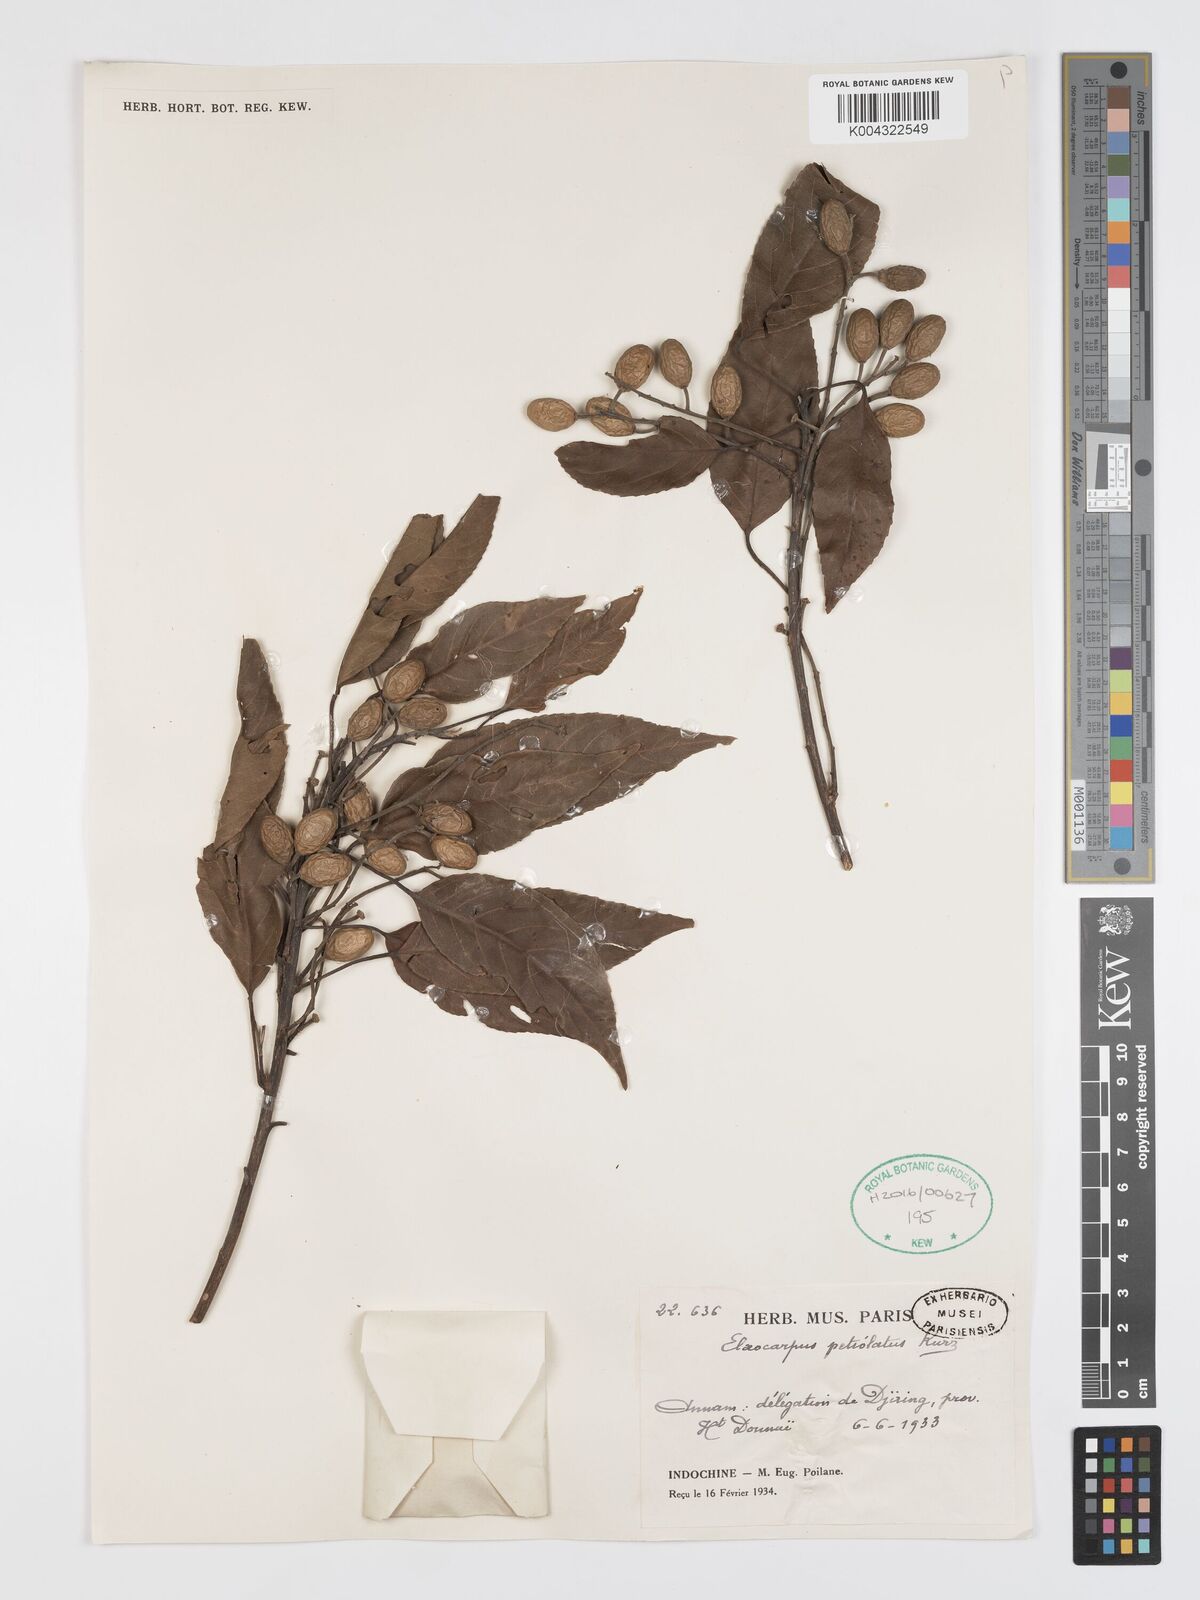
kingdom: Plantae
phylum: Tracheophyta
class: Magnoliopsida
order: Oxalidales
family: Elaeocarpaceae
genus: Elaeocarpus
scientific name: Elaeocarpus petiolatus
